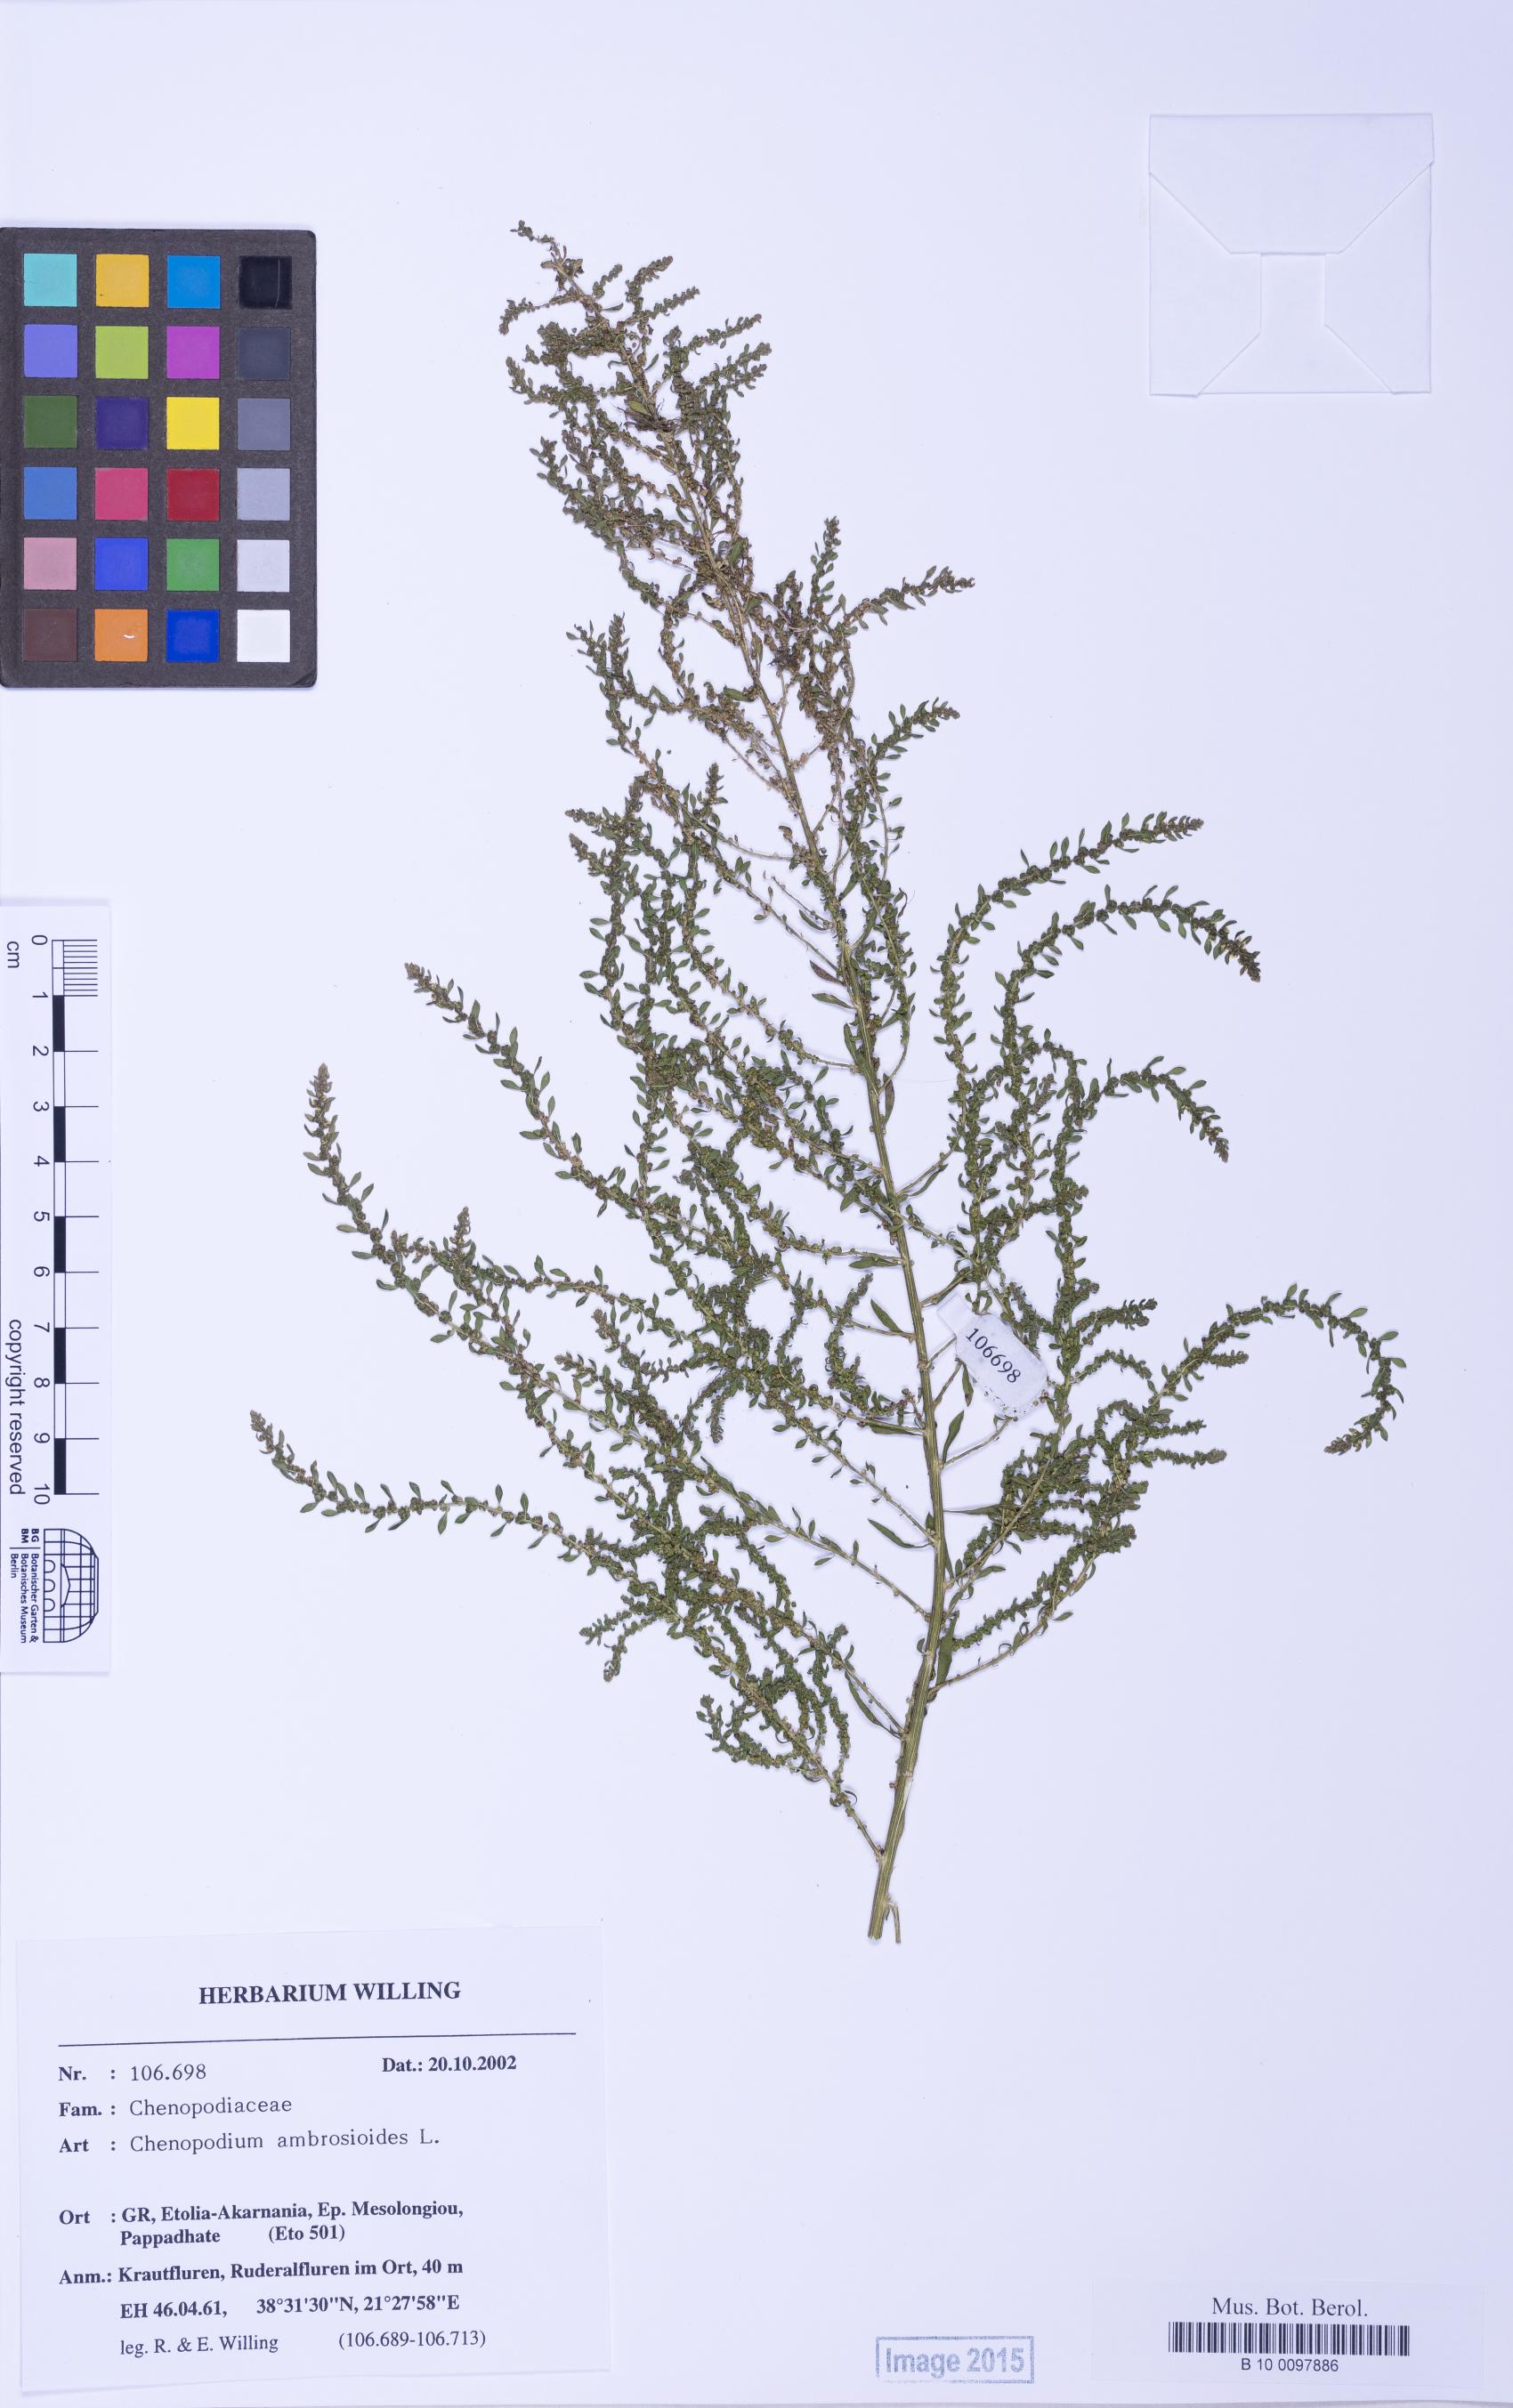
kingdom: Plantae
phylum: Tracheophyta
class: Magnoliopsida
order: Caryophyllales
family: Amaranthaceae
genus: Dysphania
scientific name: Dysphania ambrosioides
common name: Wormseed
